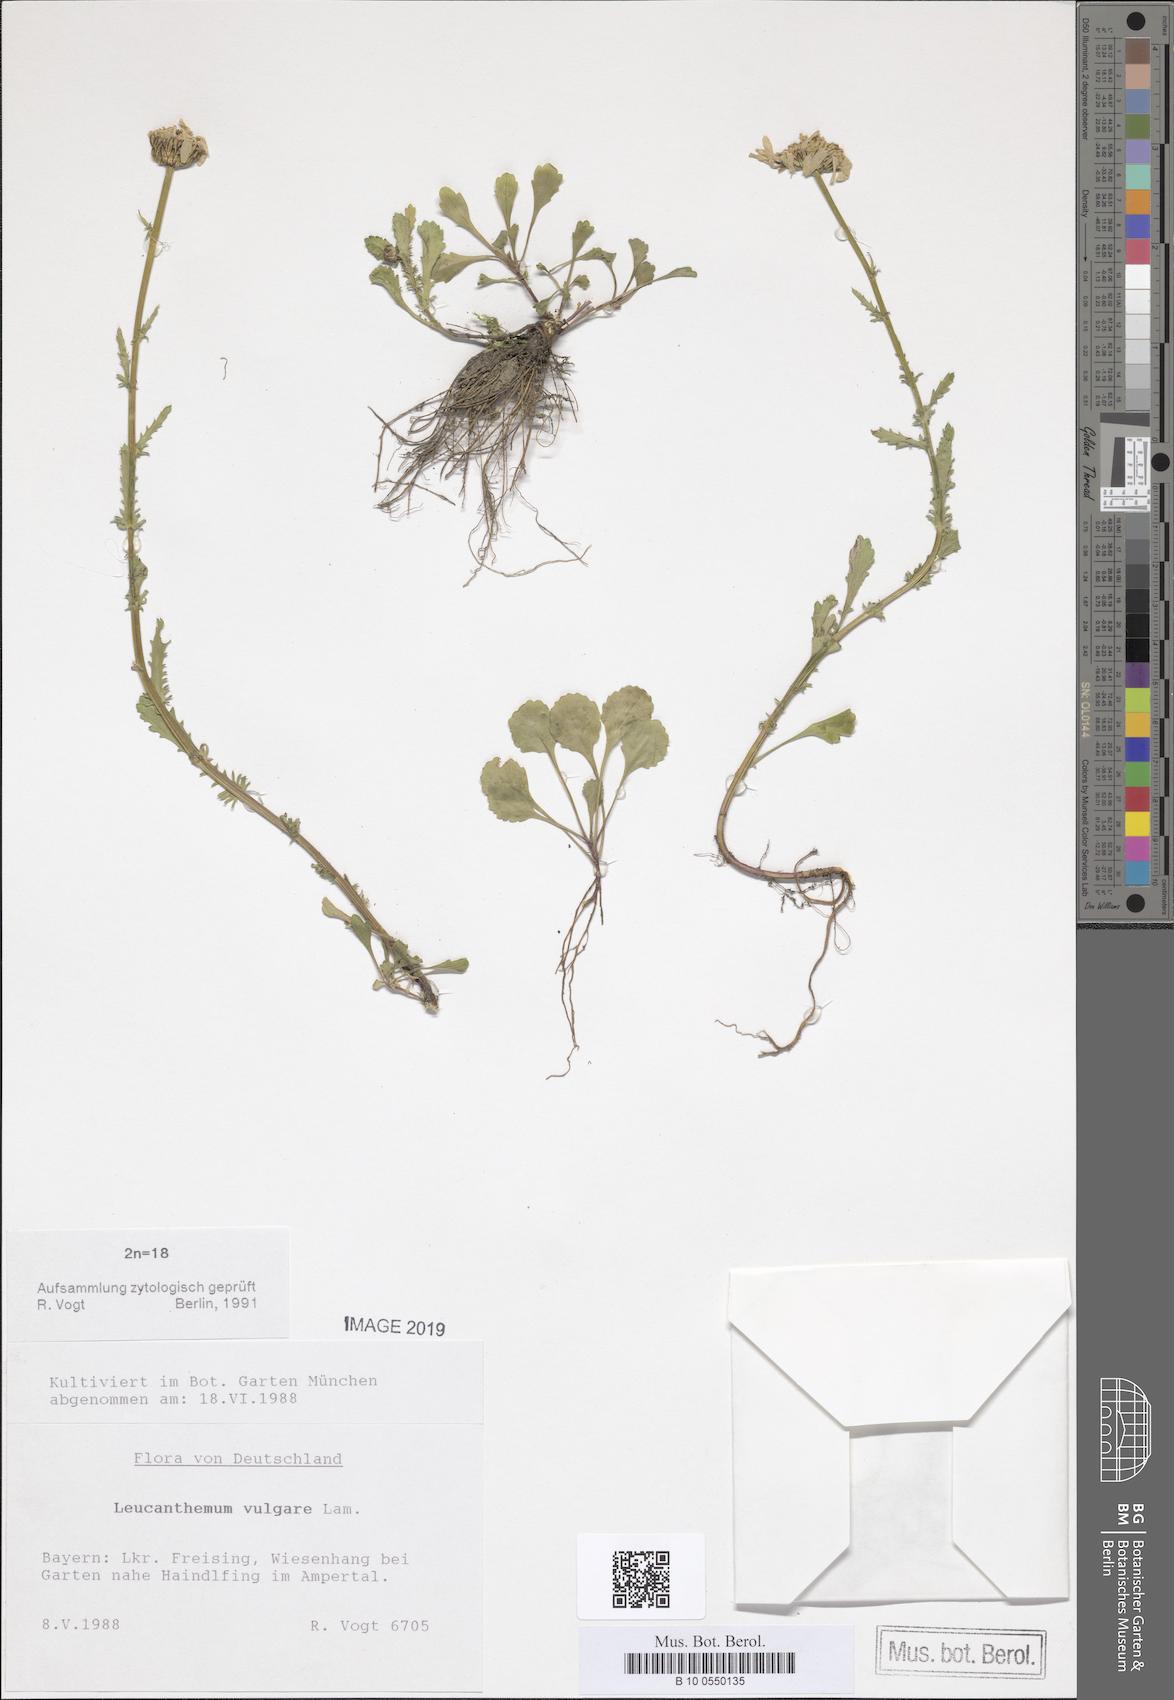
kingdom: Plantae
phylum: Tracheophyta
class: Magnoliopsida
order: Asterales
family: Asteraceae
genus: Leucanthemum
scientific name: Leucanthemum vulgare
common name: Oxeye daisy
